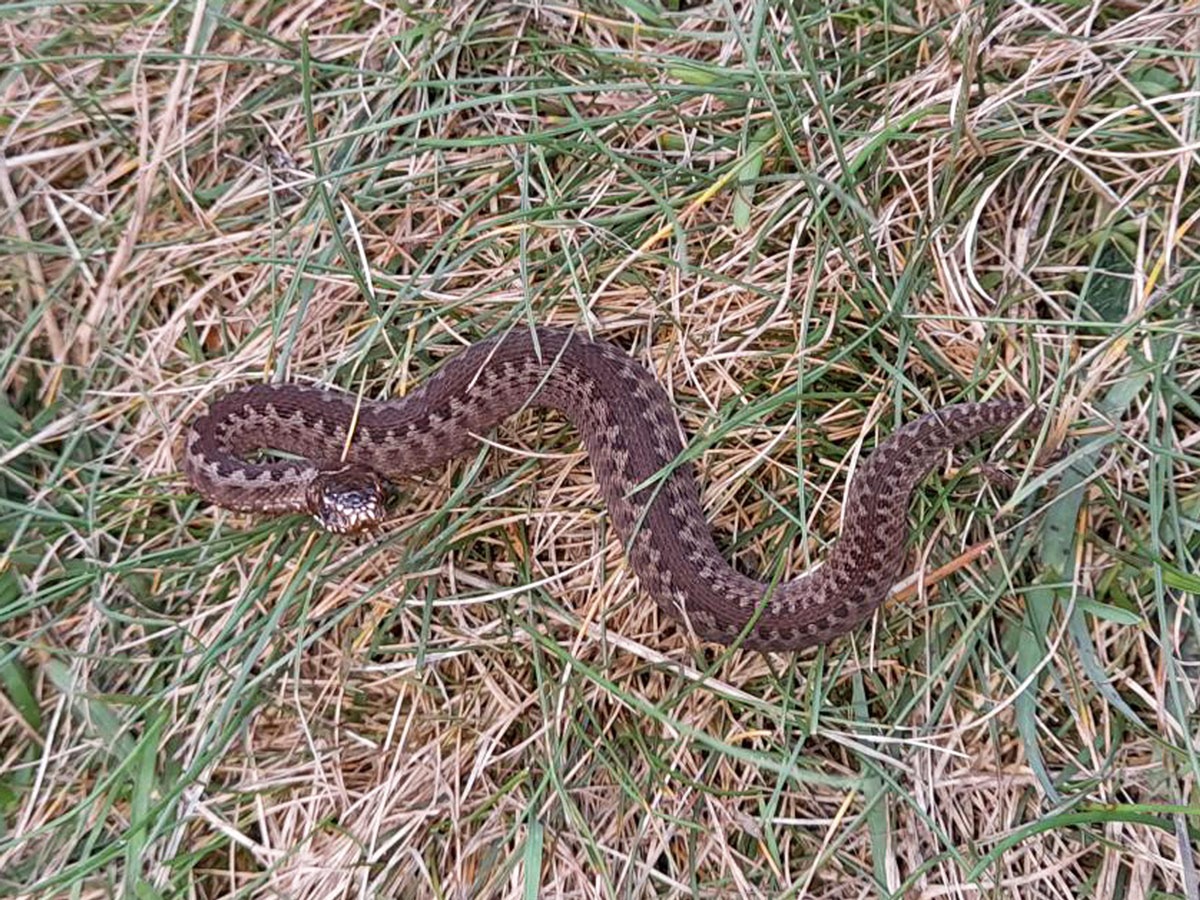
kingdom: Animalia
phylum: Chordata
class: Squamata
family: Viperidae
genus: Vipera
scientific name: Vipera berus
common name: Hugorm
